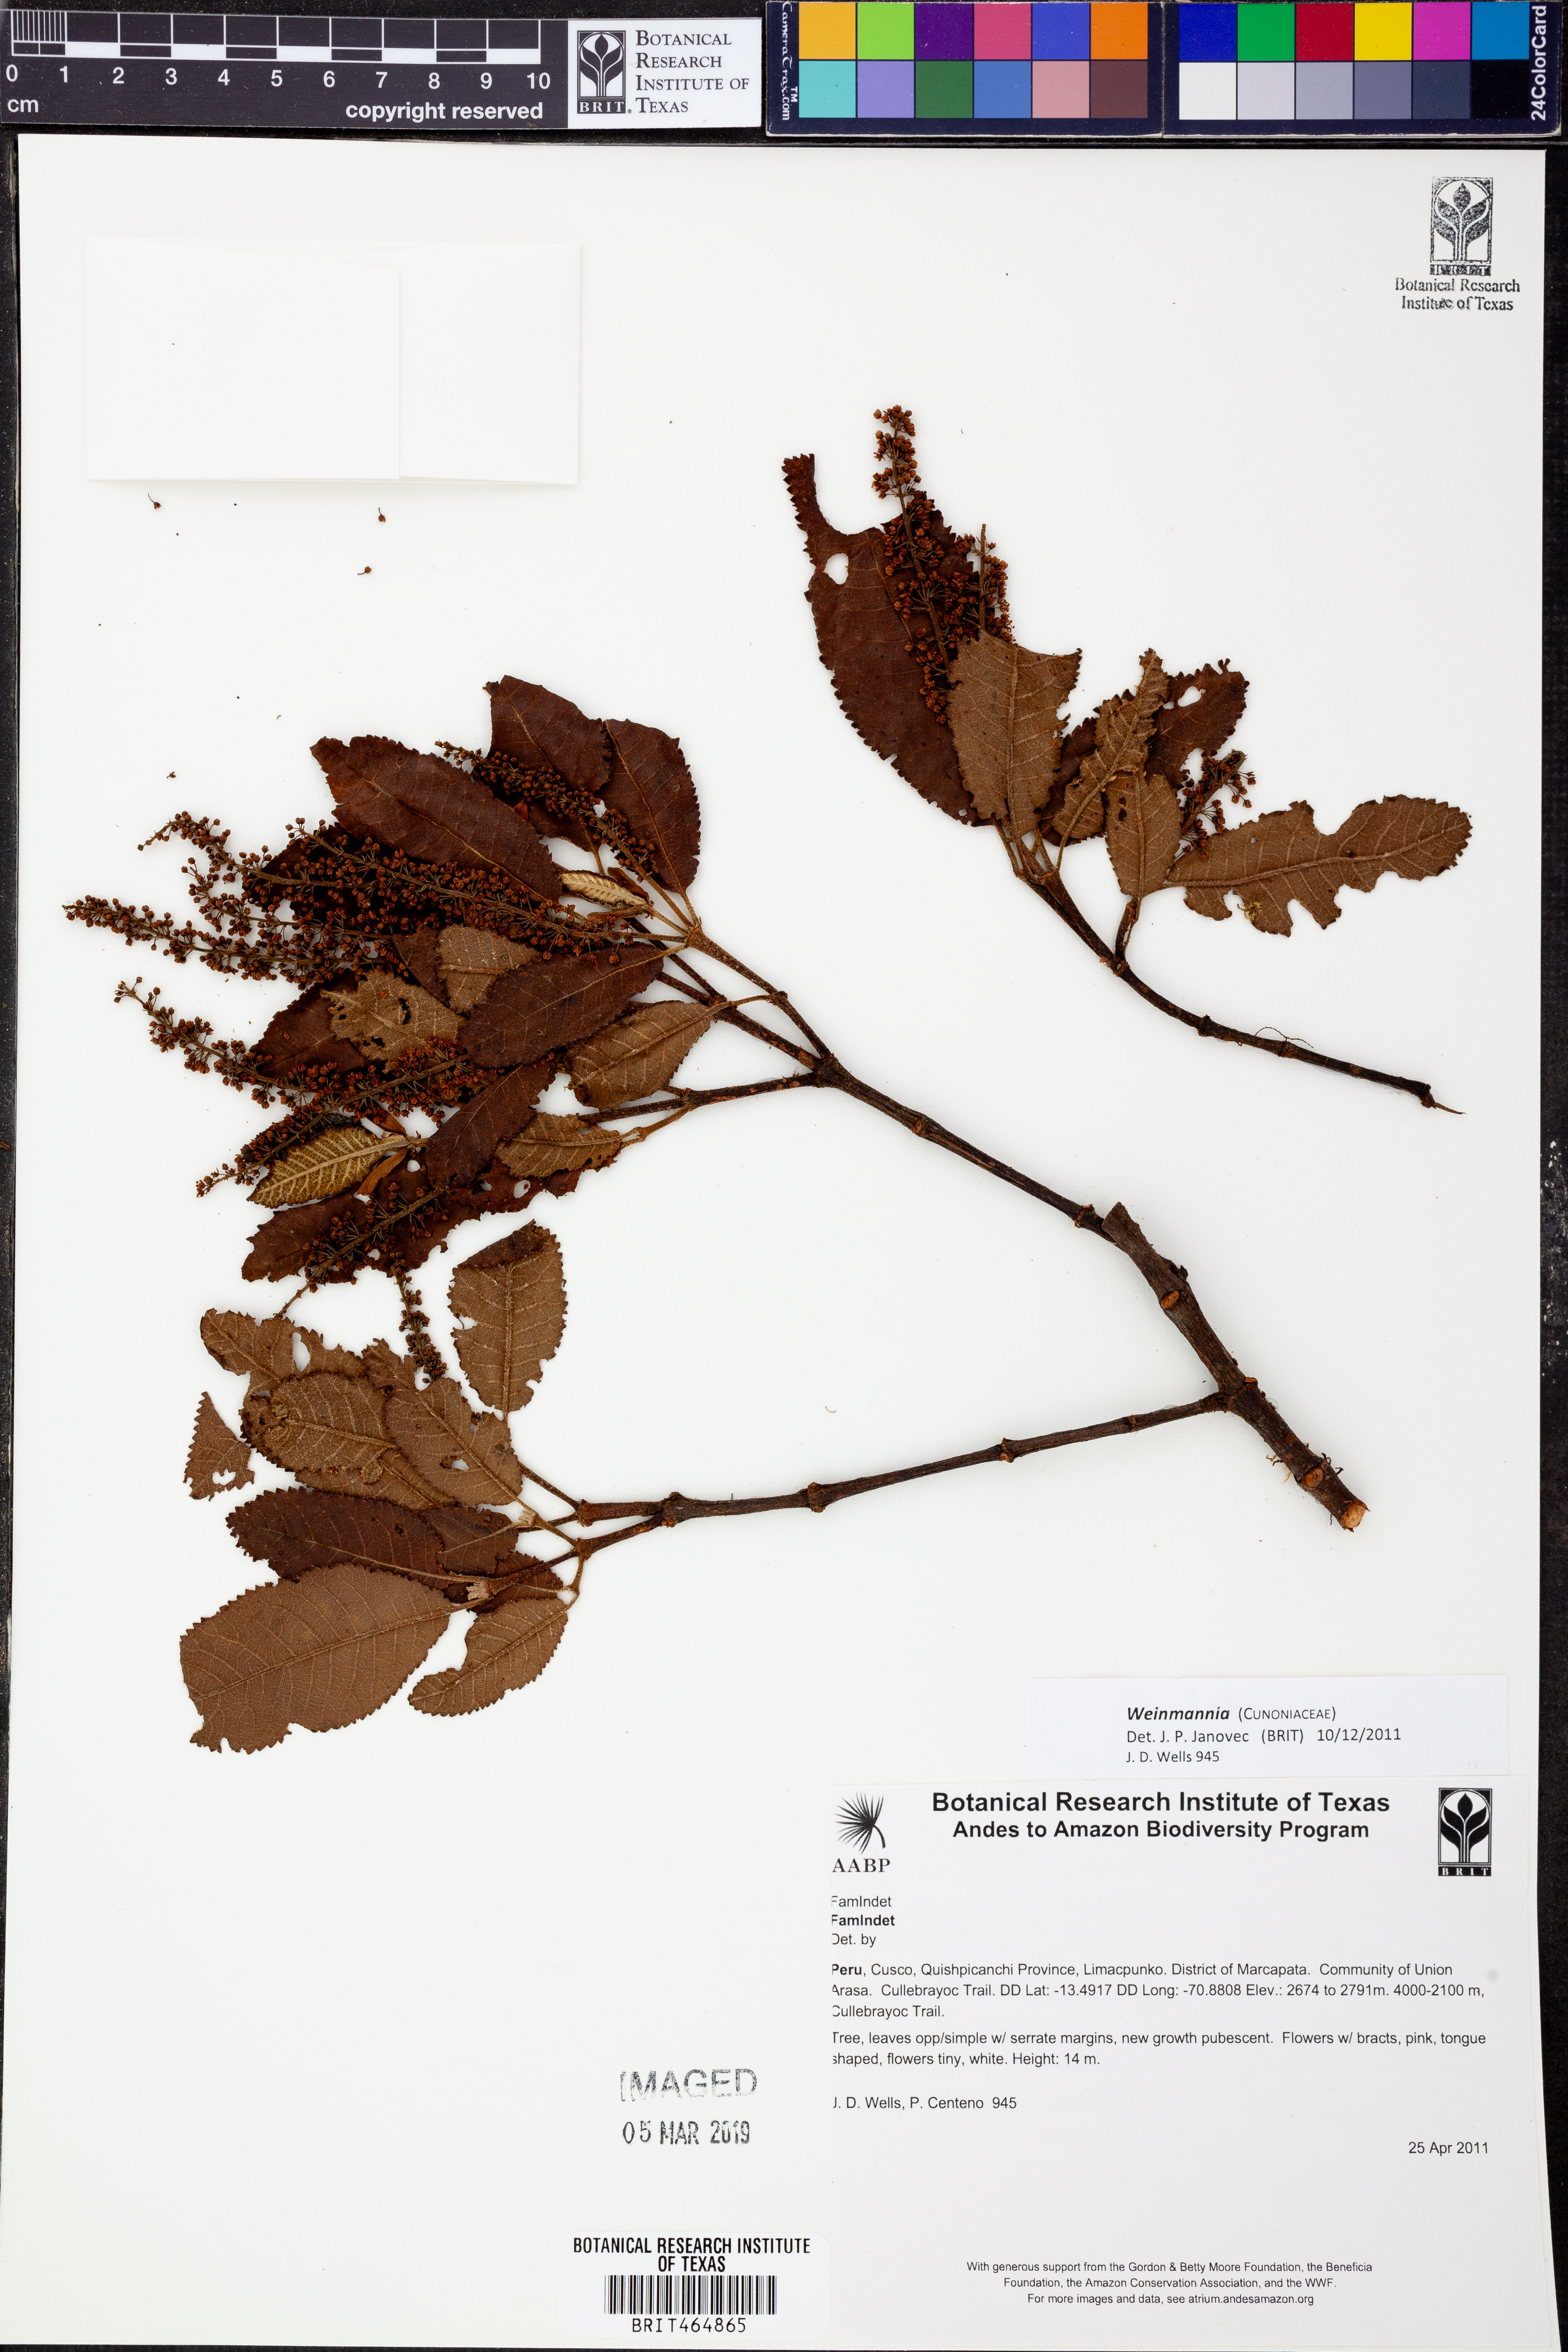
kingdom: Plantae
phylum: Tracheophyta
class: Magnoliopsida
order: Oxalidales
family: Cunoniaceae
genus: Weinmannia
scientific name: Weinmannia
